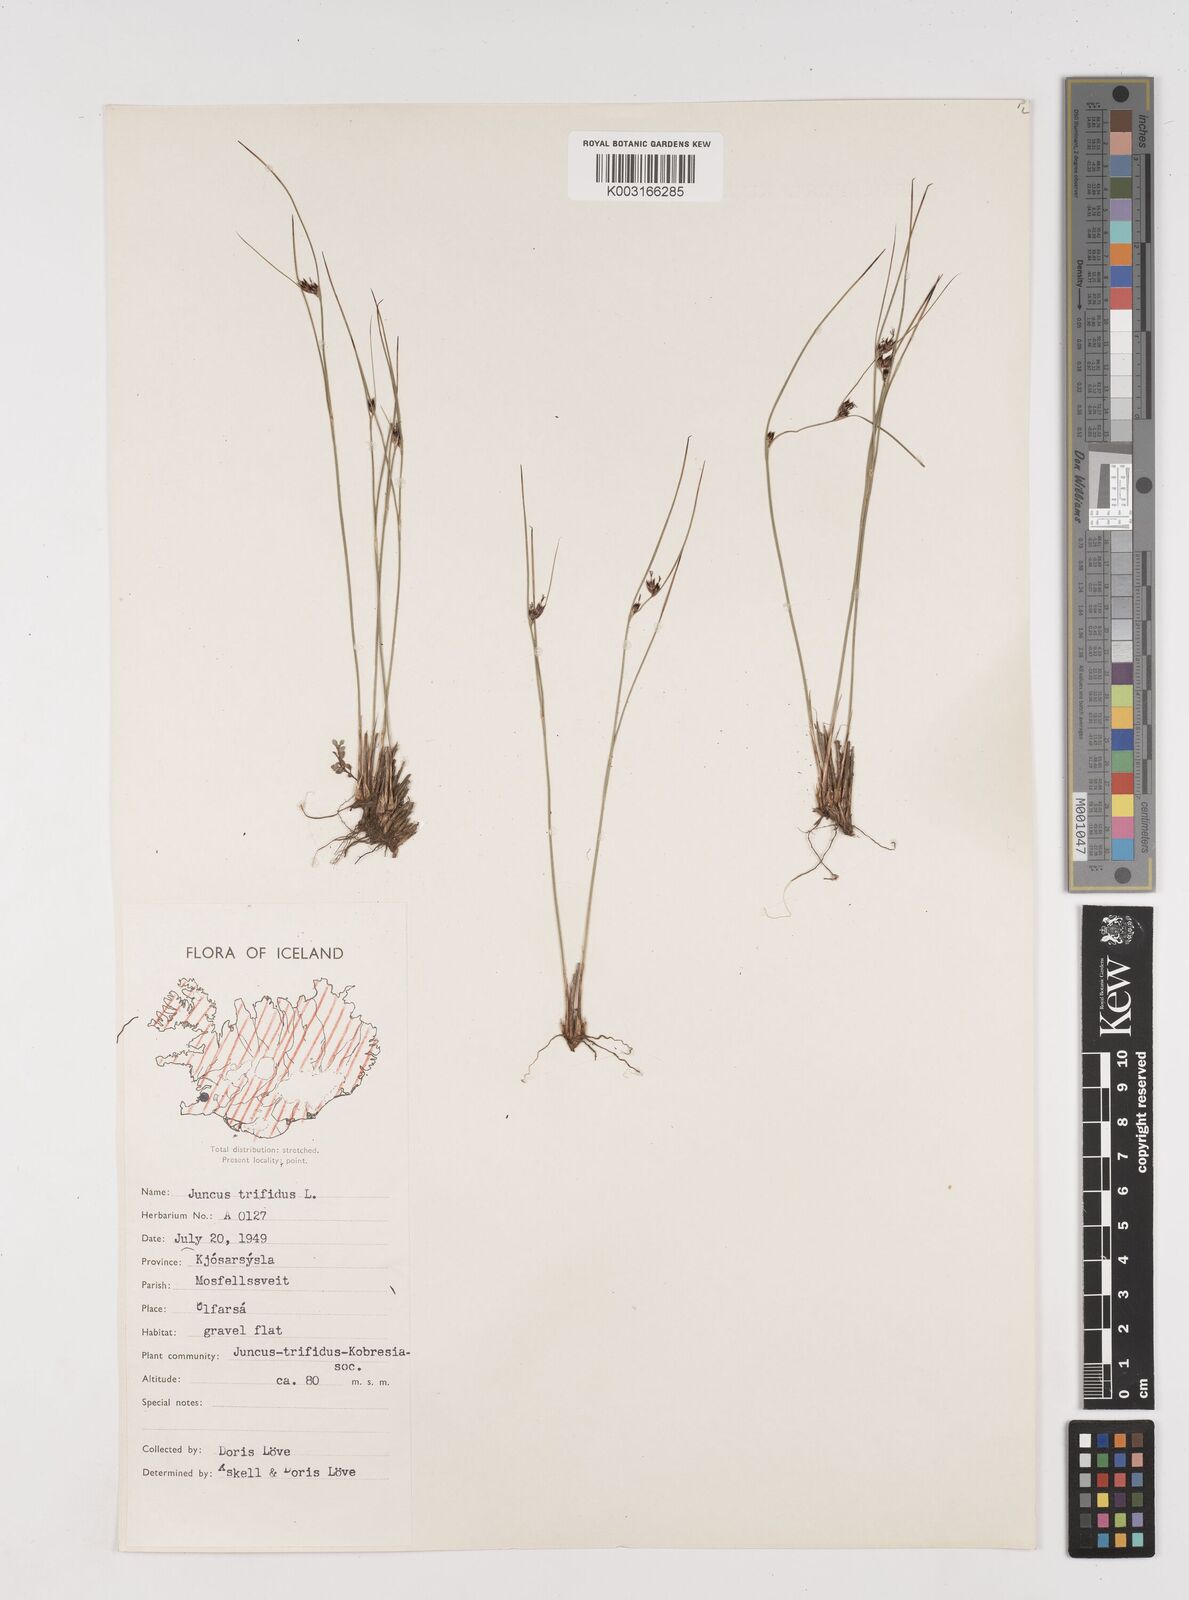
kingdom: Plantae
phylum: Tracheophyta
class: Liliopsida
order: Poales
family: Juncaceae
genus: Oreojuncus
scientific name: Oreojuncus trifidus
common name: Highland rush
